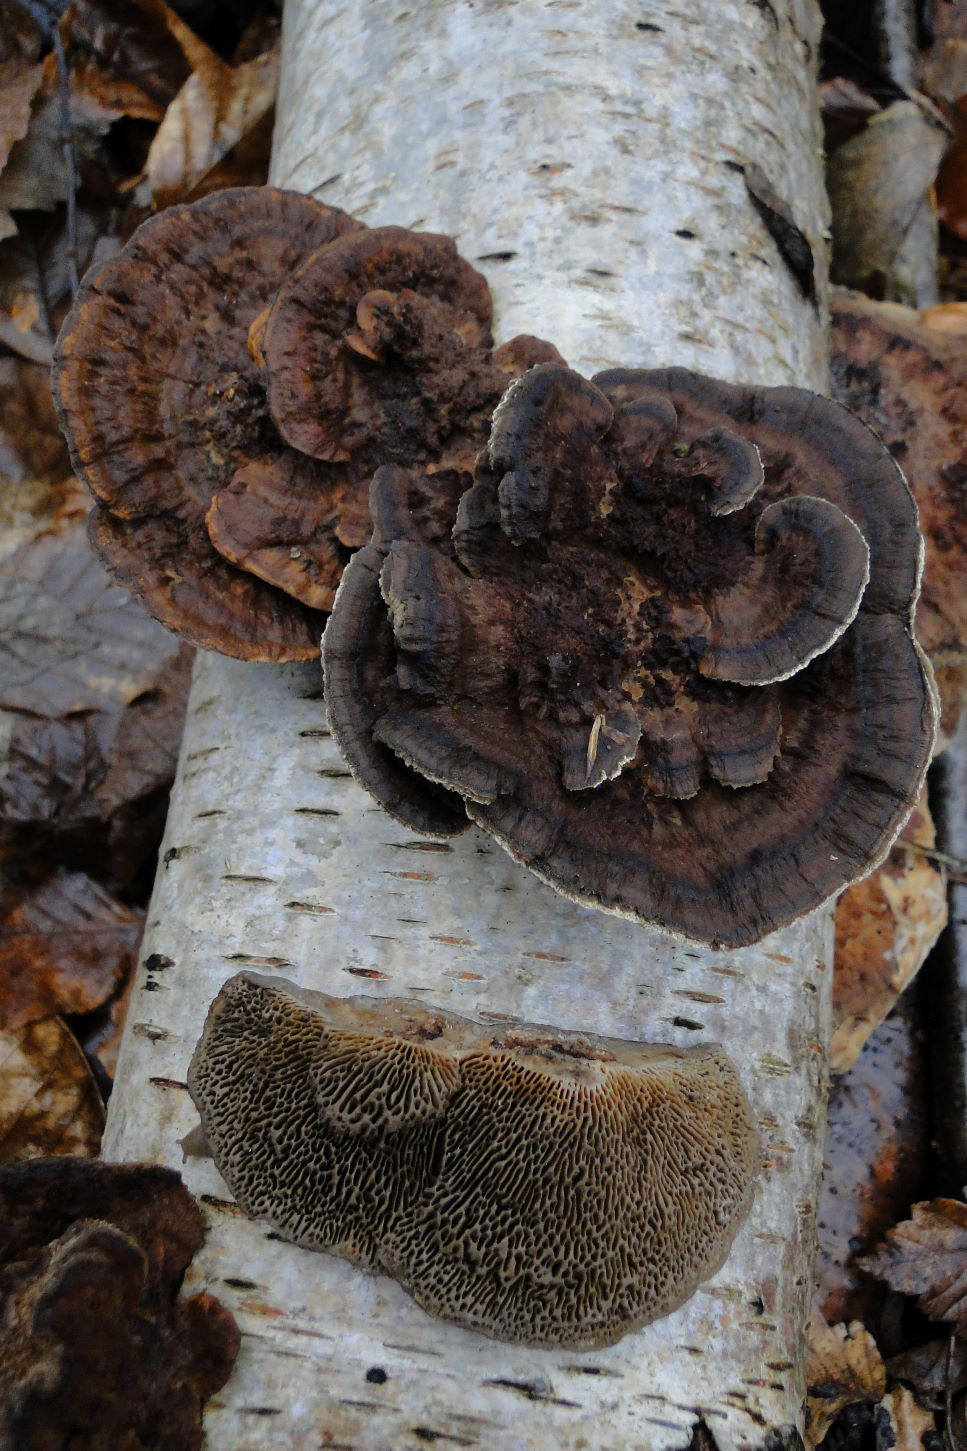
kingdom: Fungi
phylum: Basidiomycota
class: Agaricomycetes
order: Polyporales
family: Polyporaceae
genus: Lenzites
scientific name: Lenzites betulinus
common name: birke-læderporesvamp
